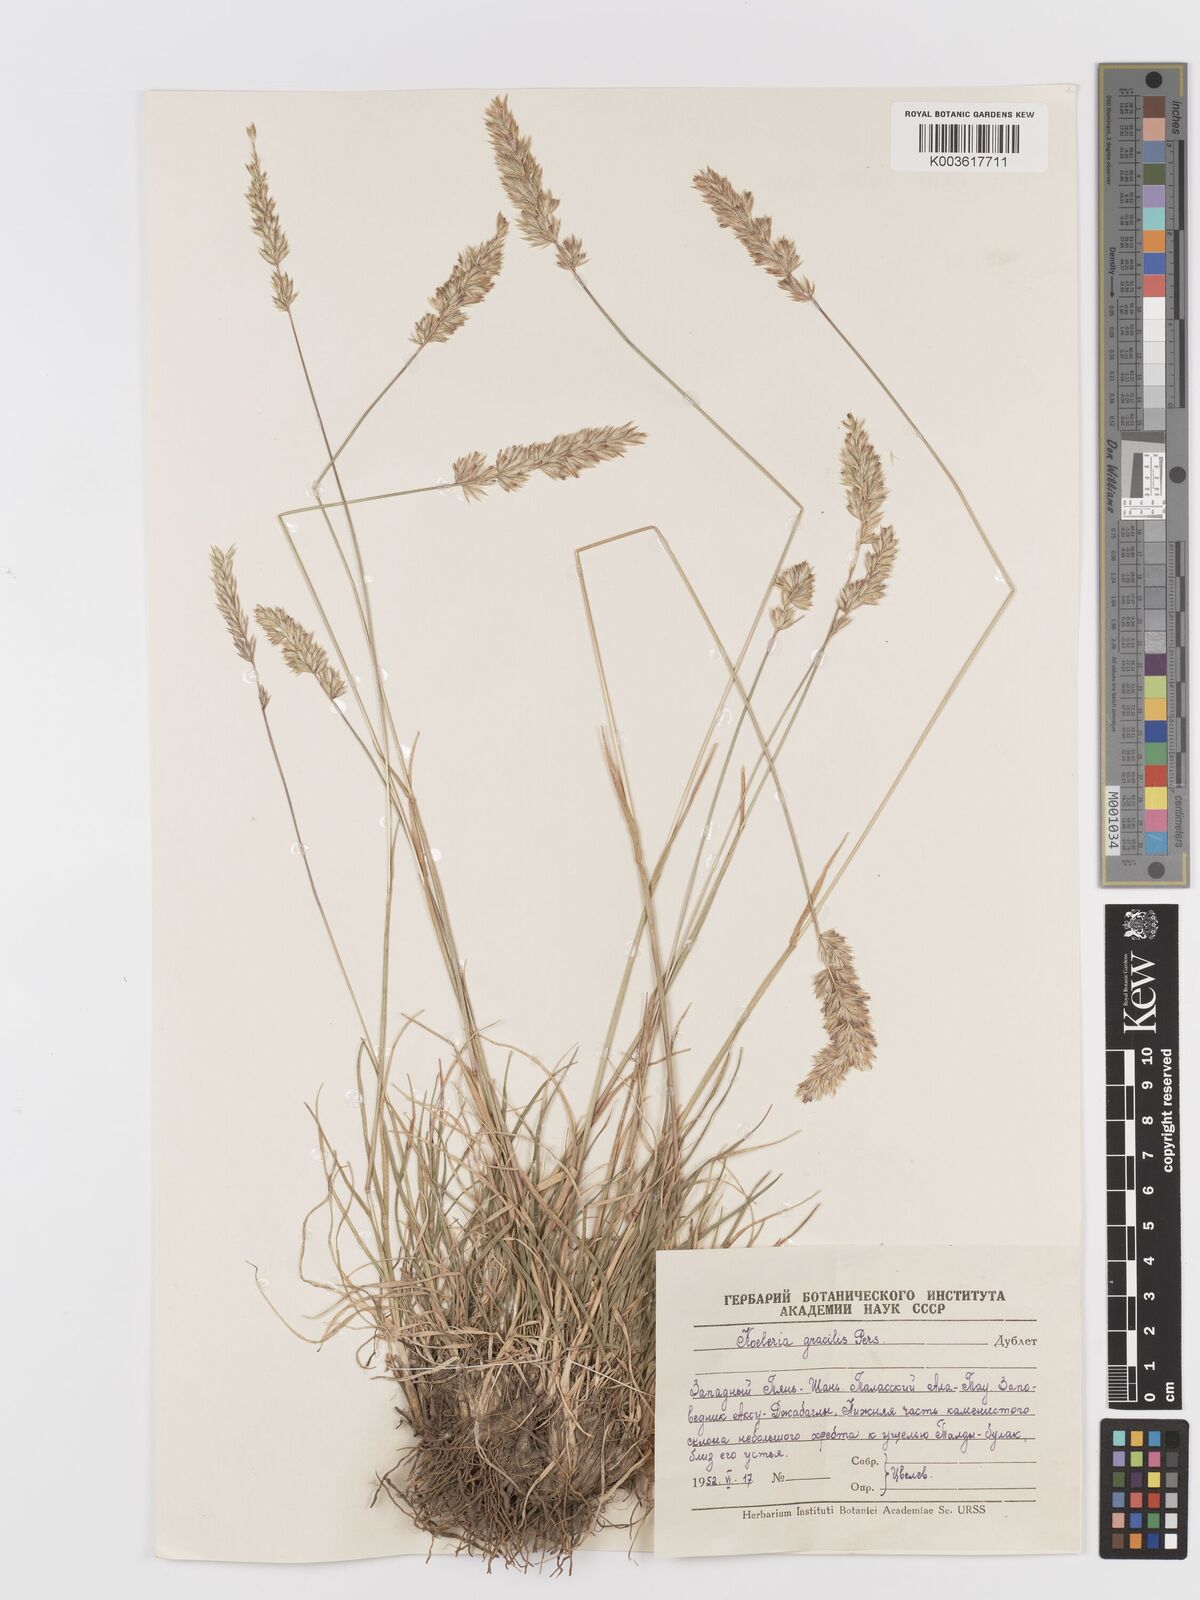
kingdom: Plantae
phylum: Tracheophyta
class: Liliopsida
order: Poales
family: Poaceae
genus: Koeleria
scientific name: Koeleria pyramidata
